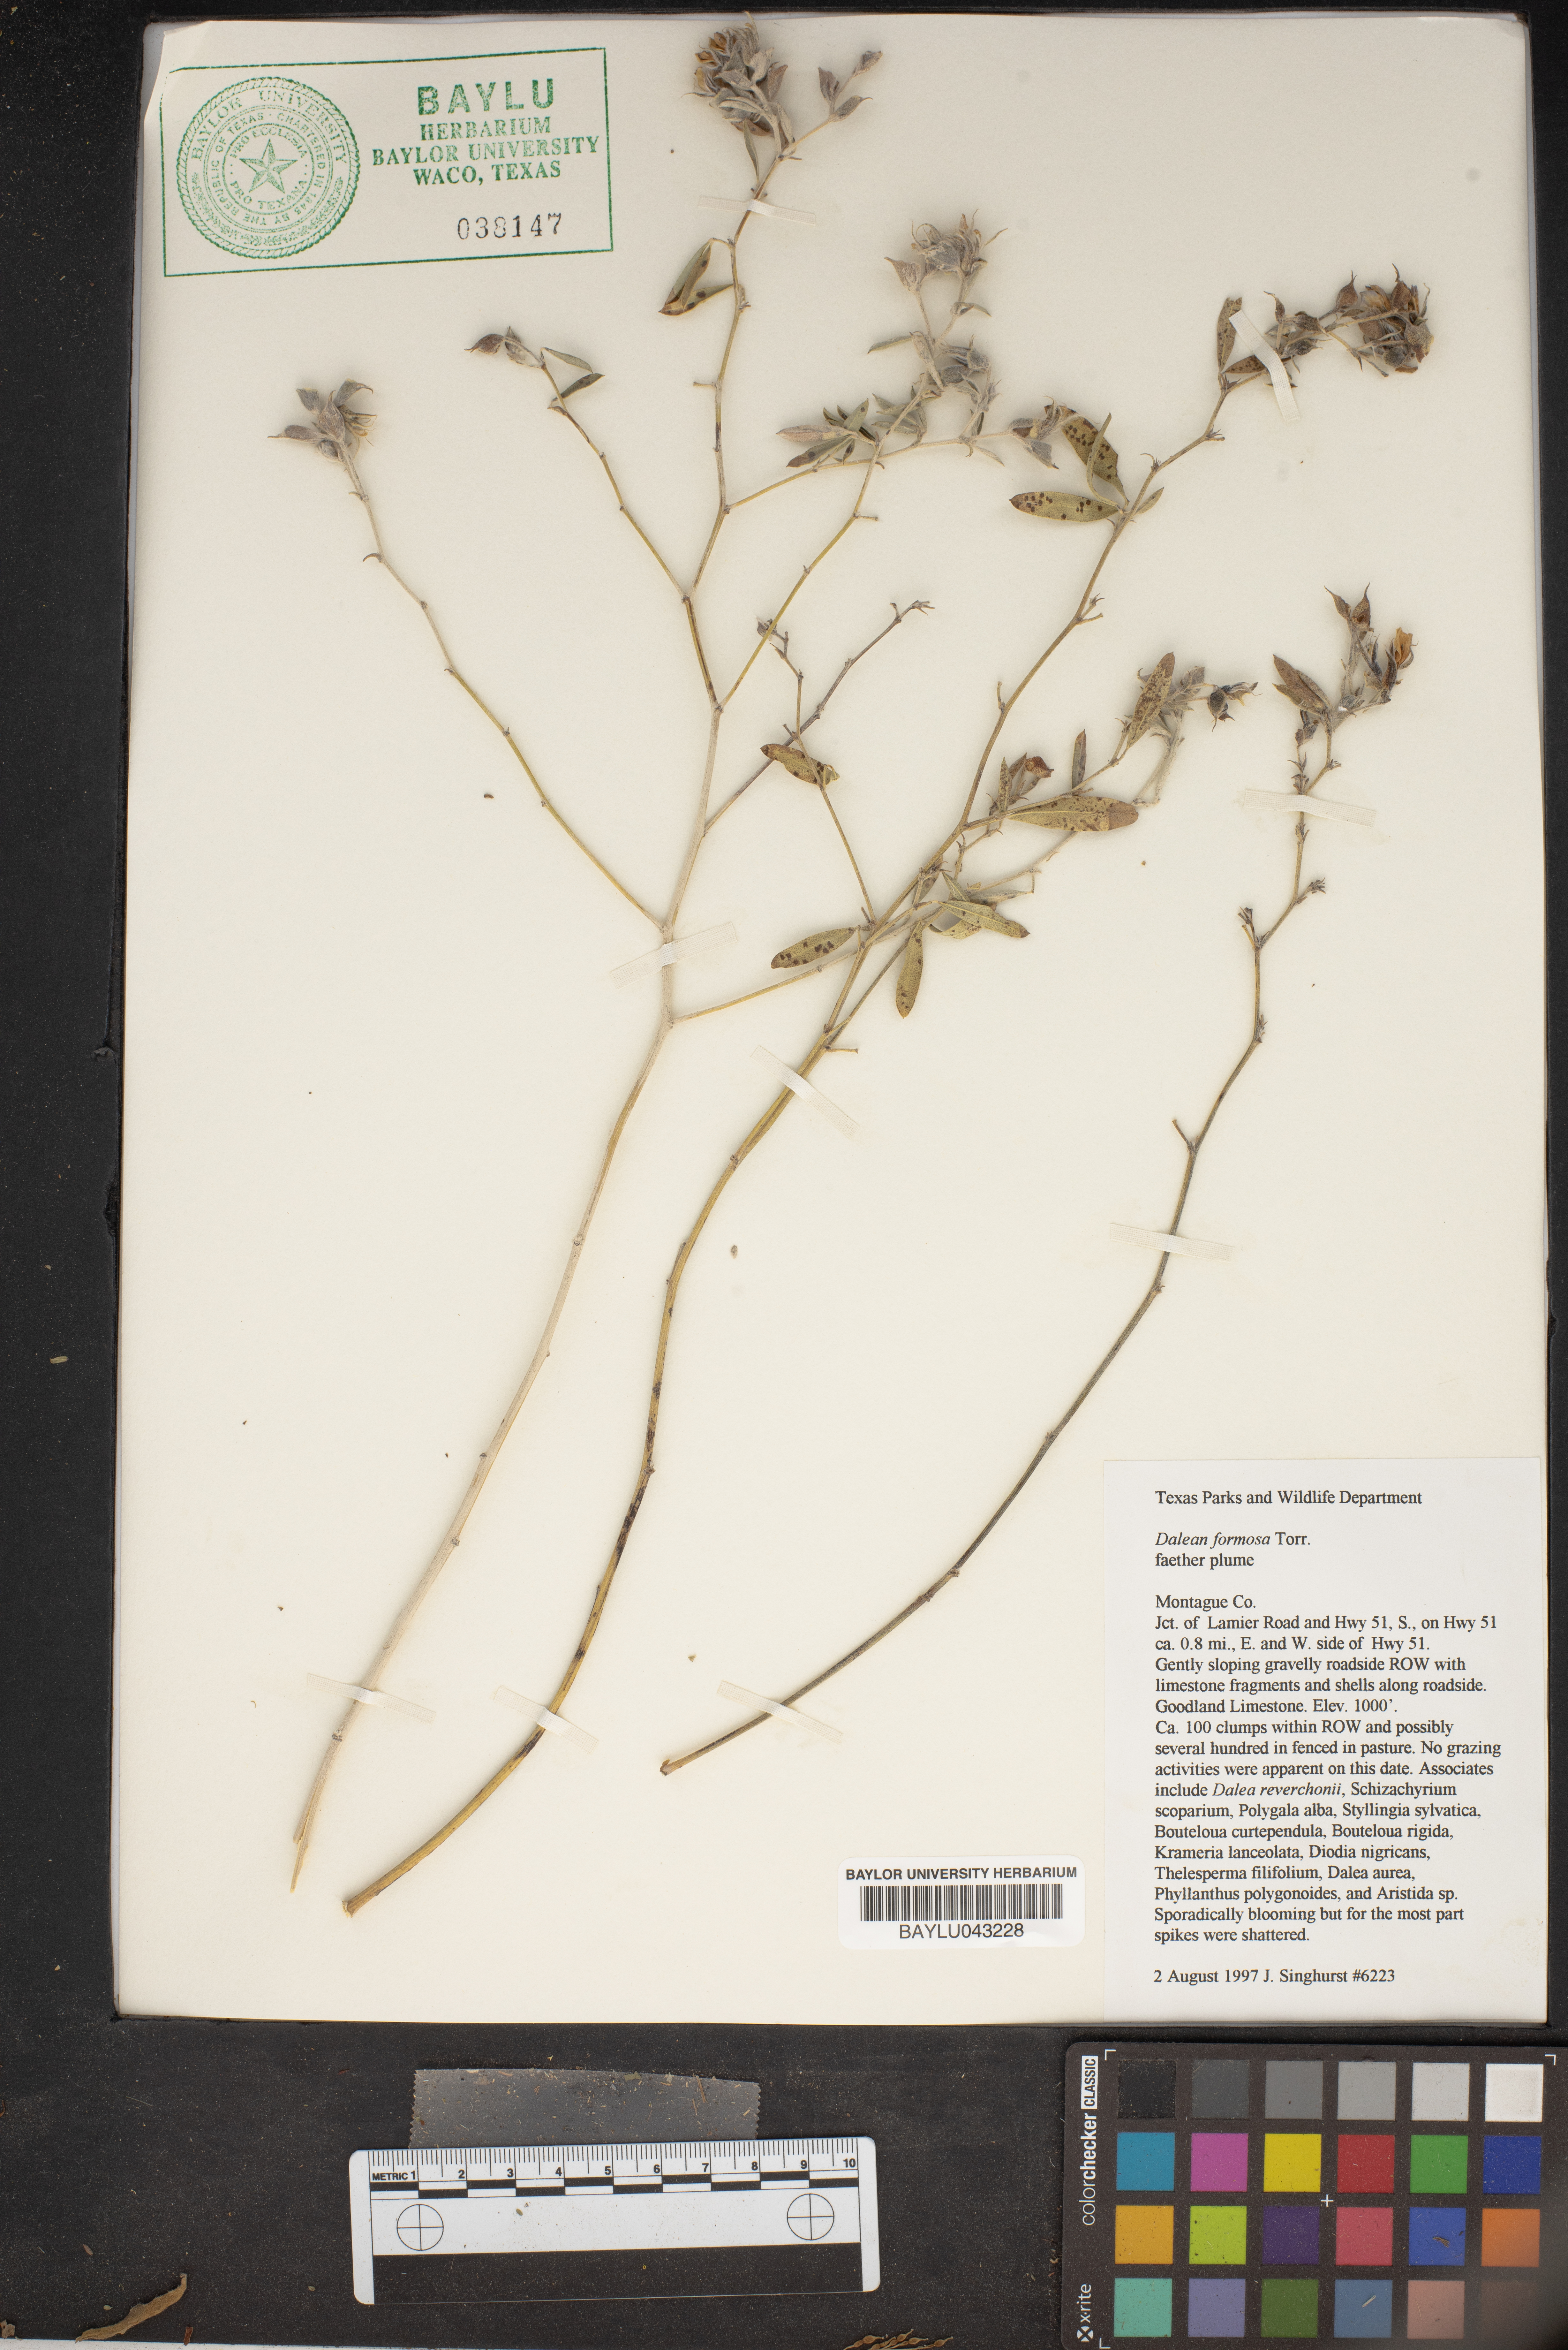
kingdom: Plantae
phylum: Tracheophyta
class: Magnoliopsida
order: Fabales
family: Fabaceae
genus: Dalea
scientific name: Dalea formosa
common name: Feather-plume dalea
